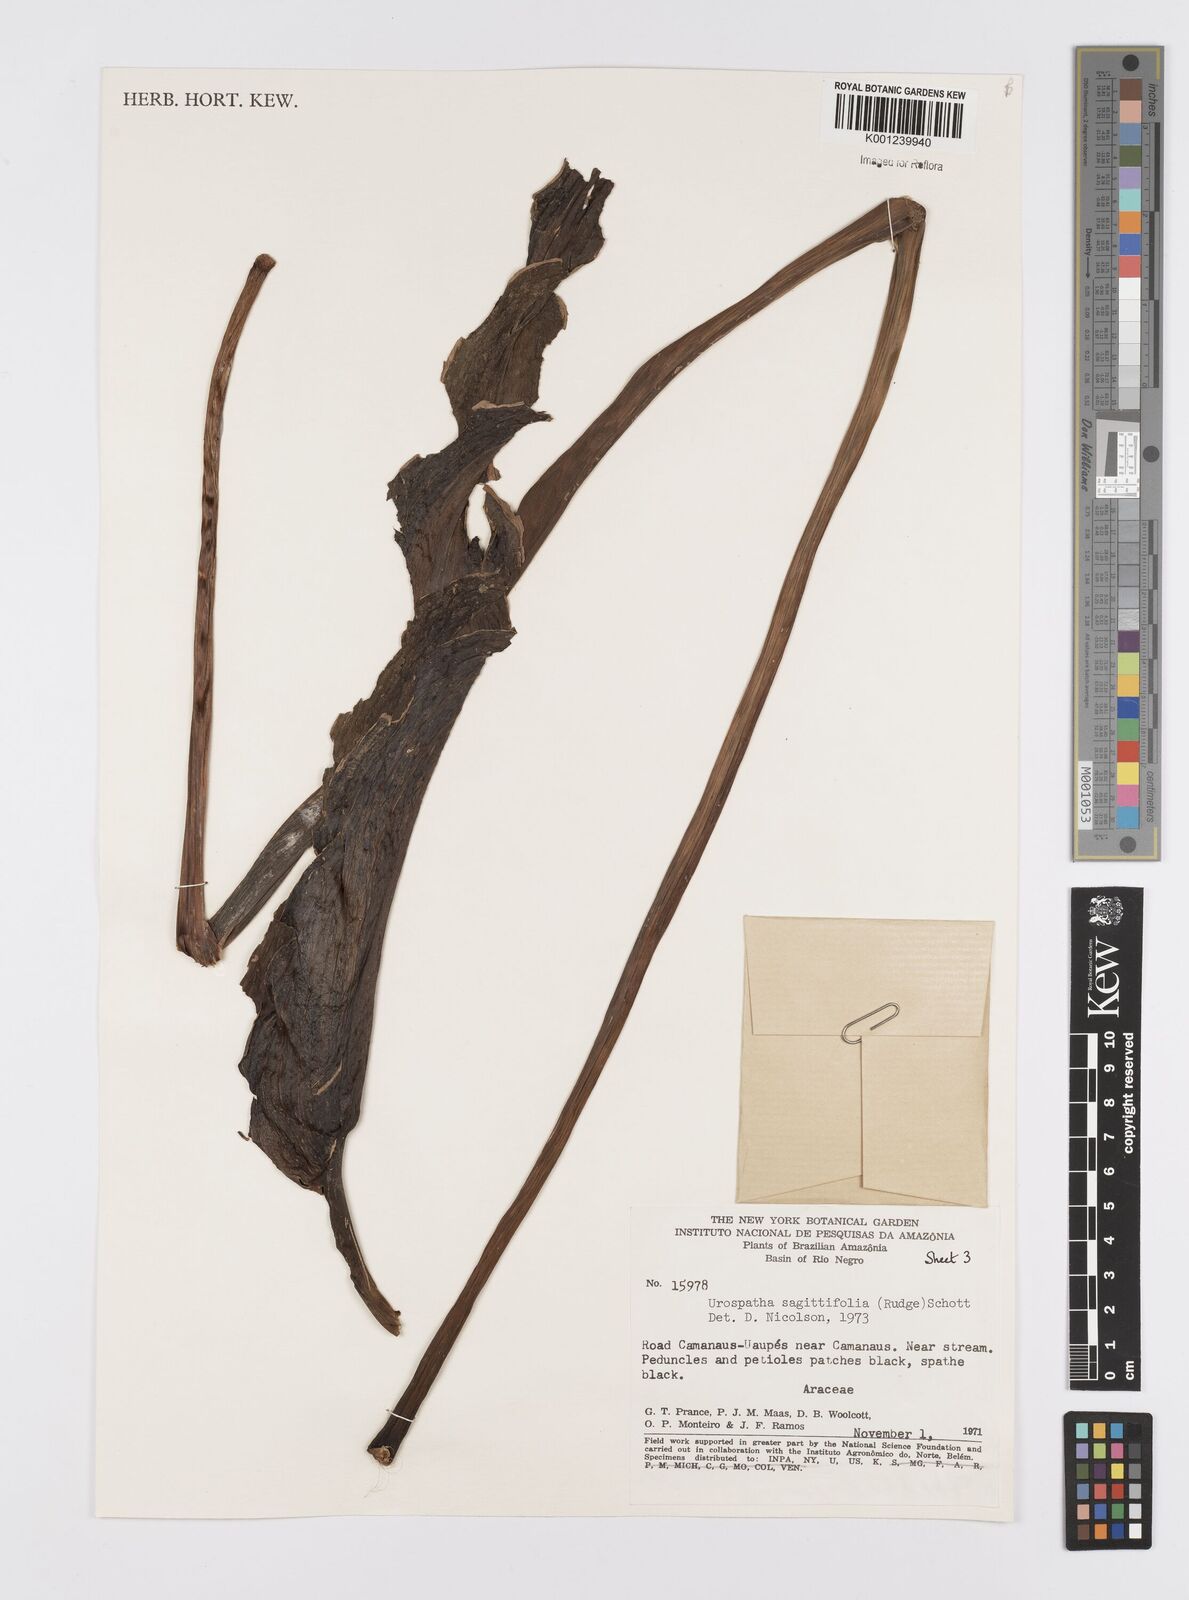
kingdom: Plantae
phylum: Tracheophyta
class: Liliopsida
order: Alismatales
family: Araceae
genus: Urospatha
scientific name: Urospatha sagittifolia
